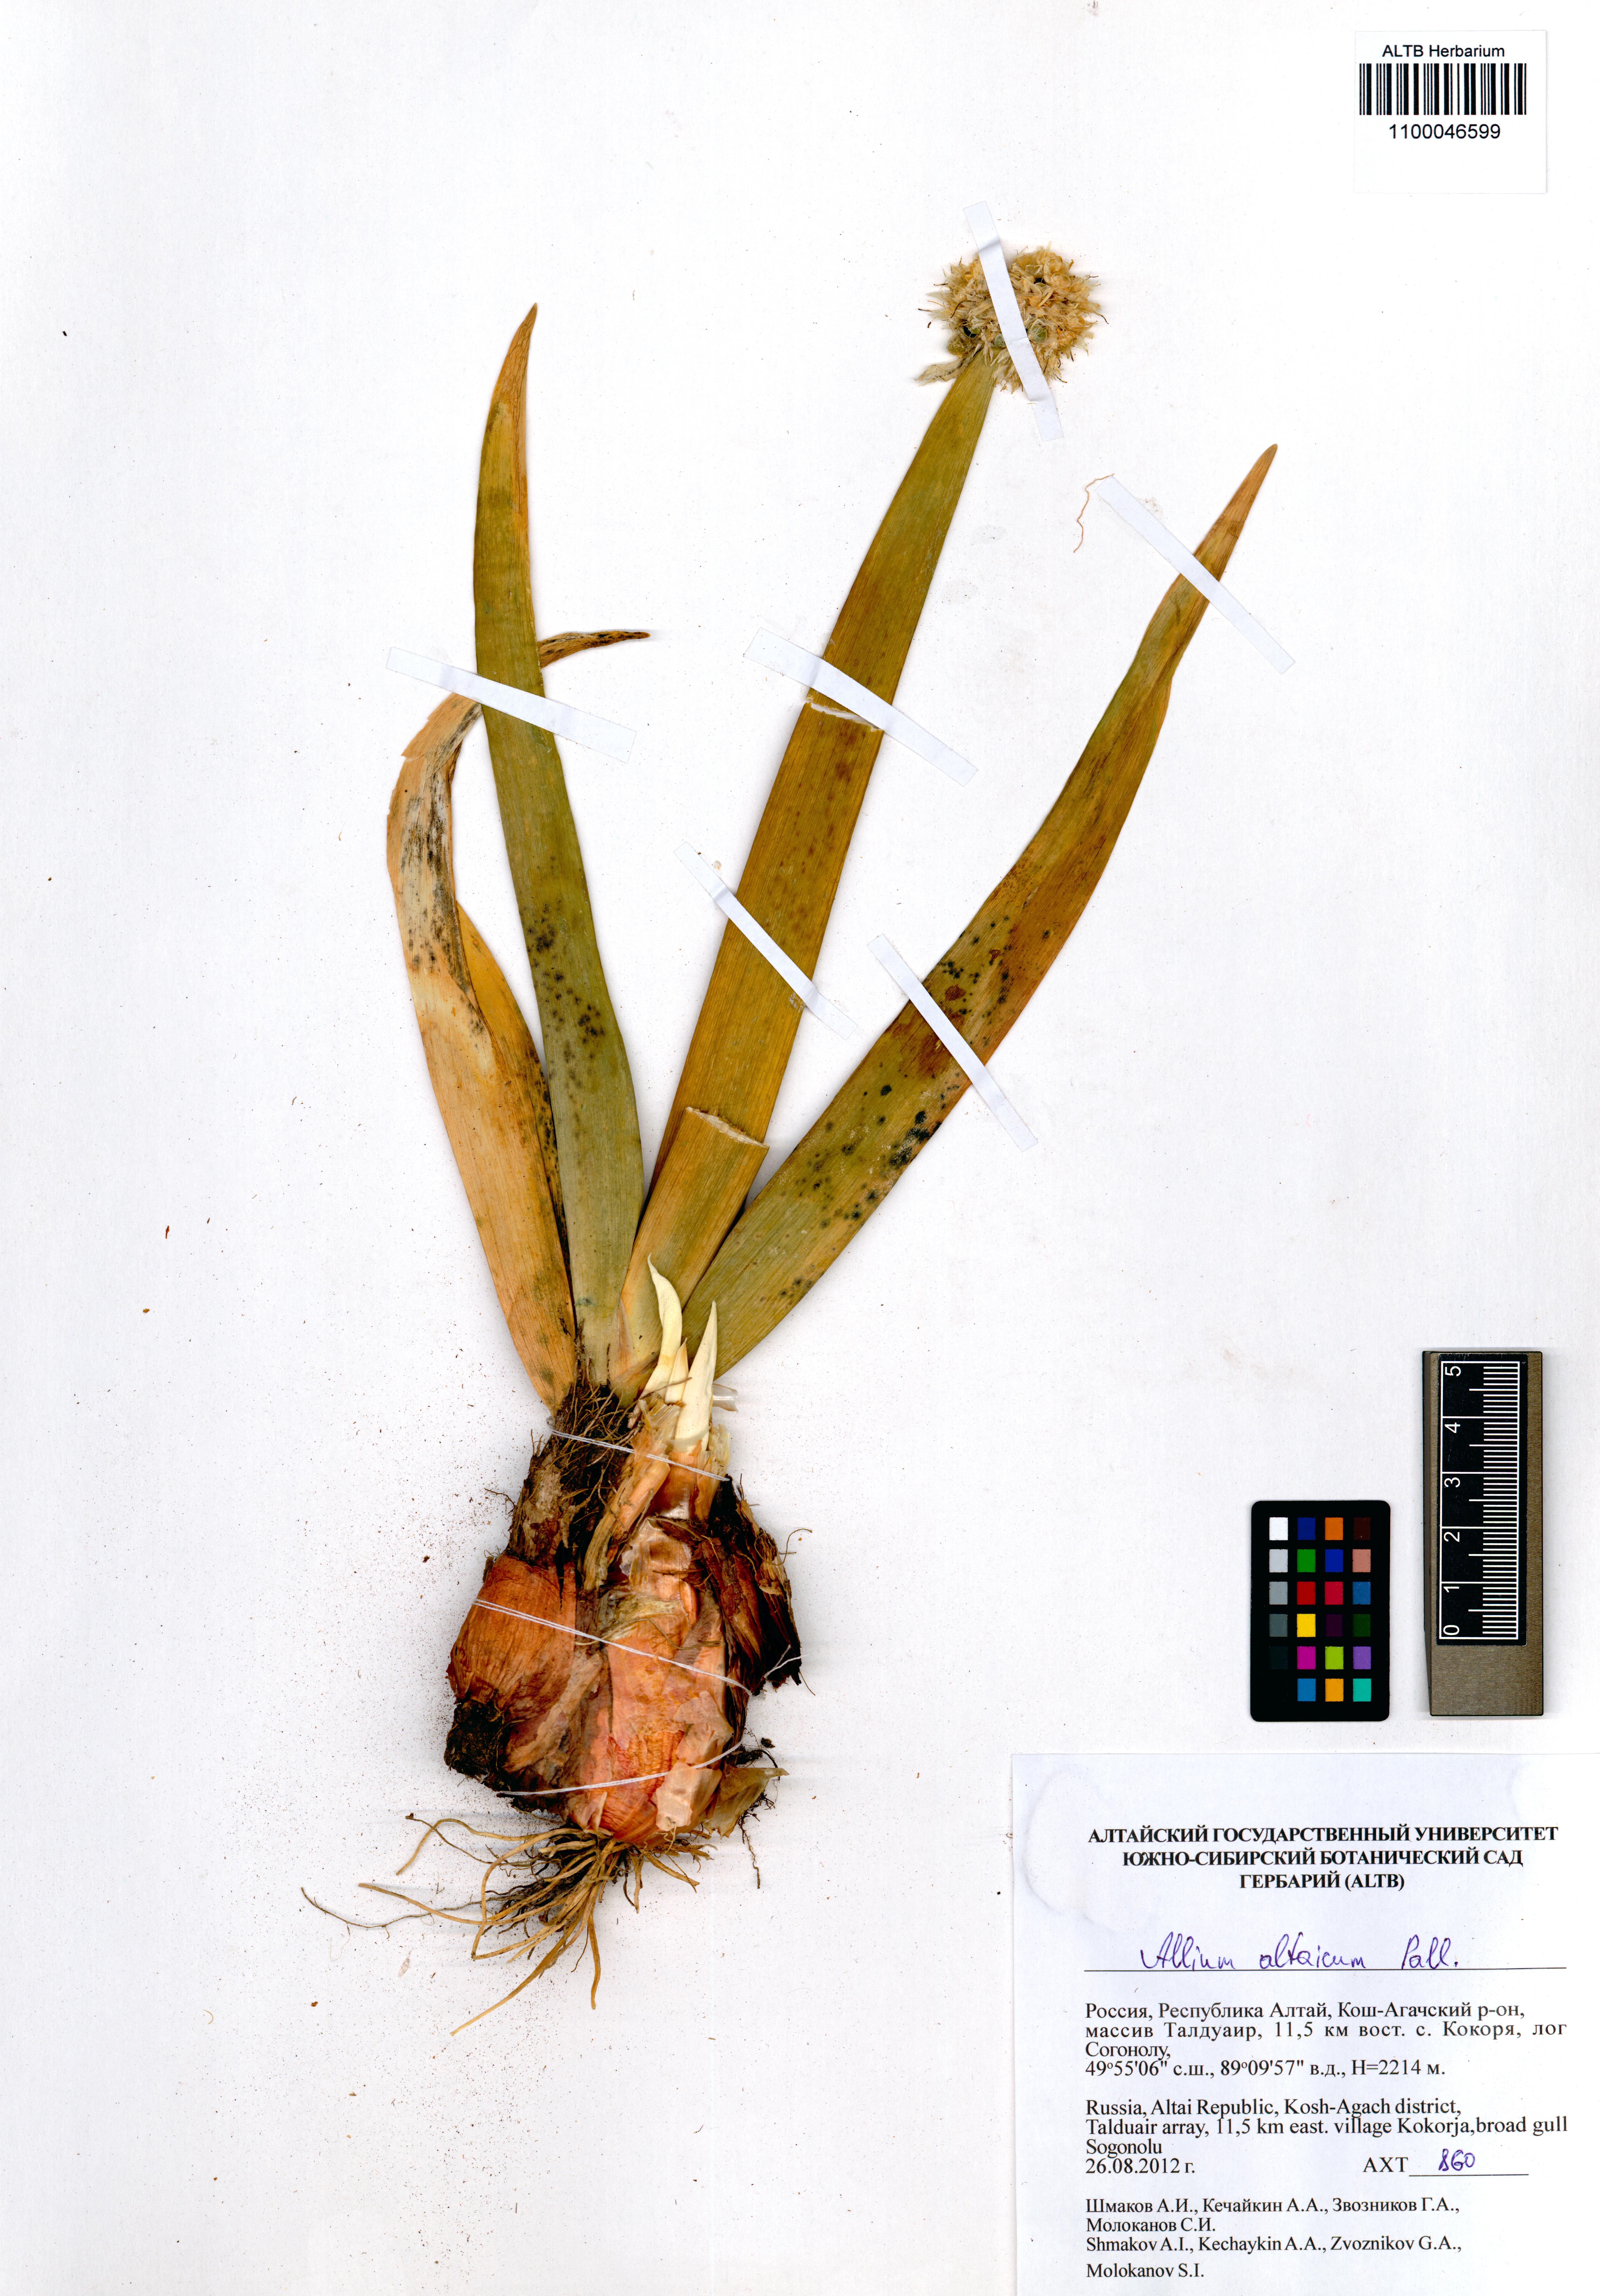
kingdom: Plantae
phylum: Tracheophyta
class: Liliopsida
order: Asparagales
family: Amaryllidaceae
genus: Allium
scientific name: Allium altaicum
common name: Altai onion
